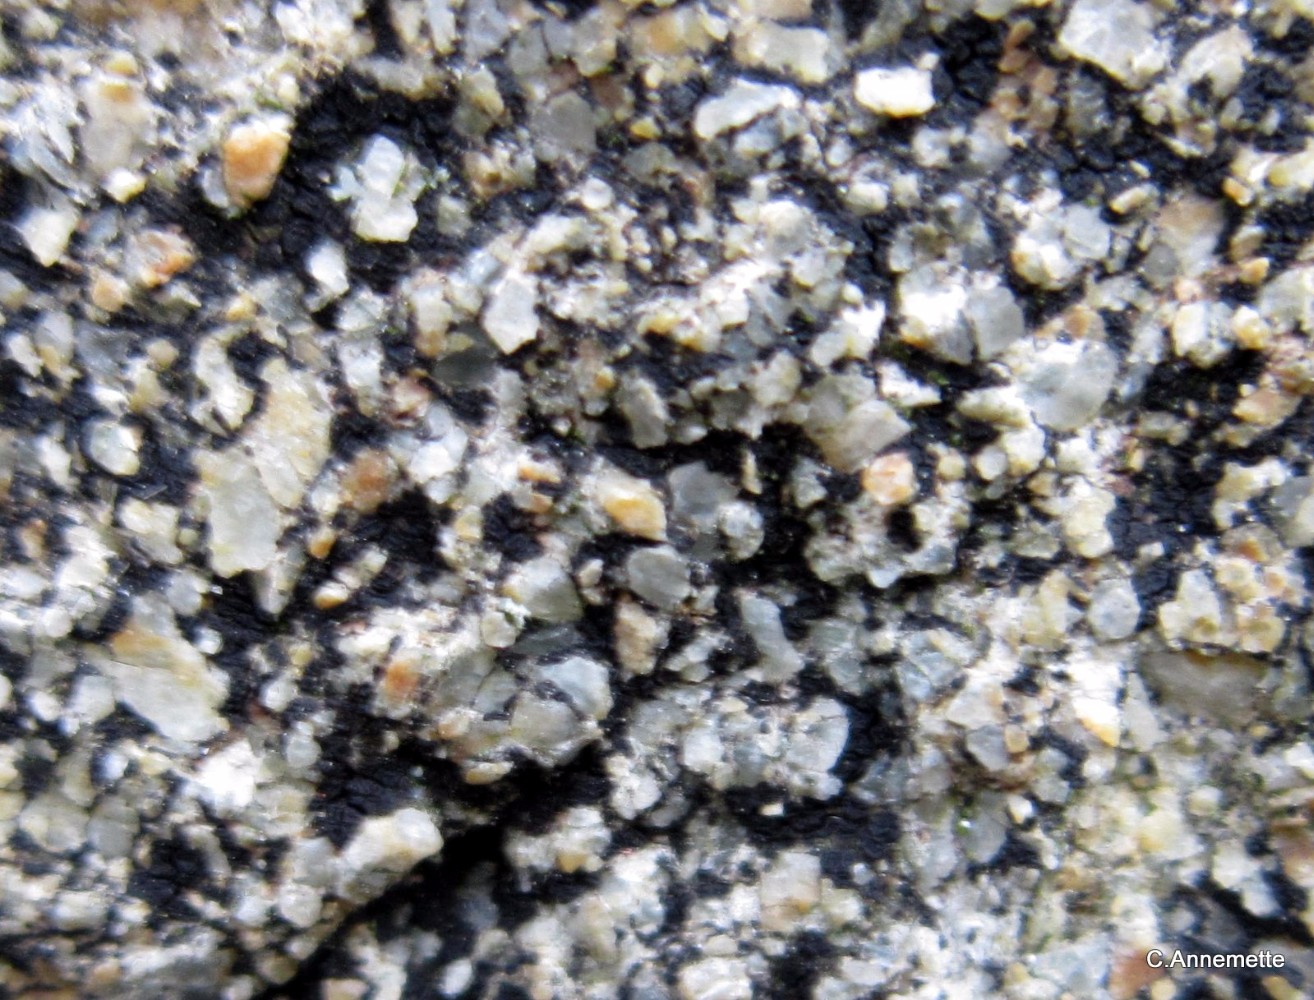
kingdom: Fungi
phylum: Ascomycota
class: Lecanoromycetes
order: Acarosporales
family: Acarosporaceae
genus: Acarospora
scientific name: Acarospora privigna
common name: sort foldekantlav
